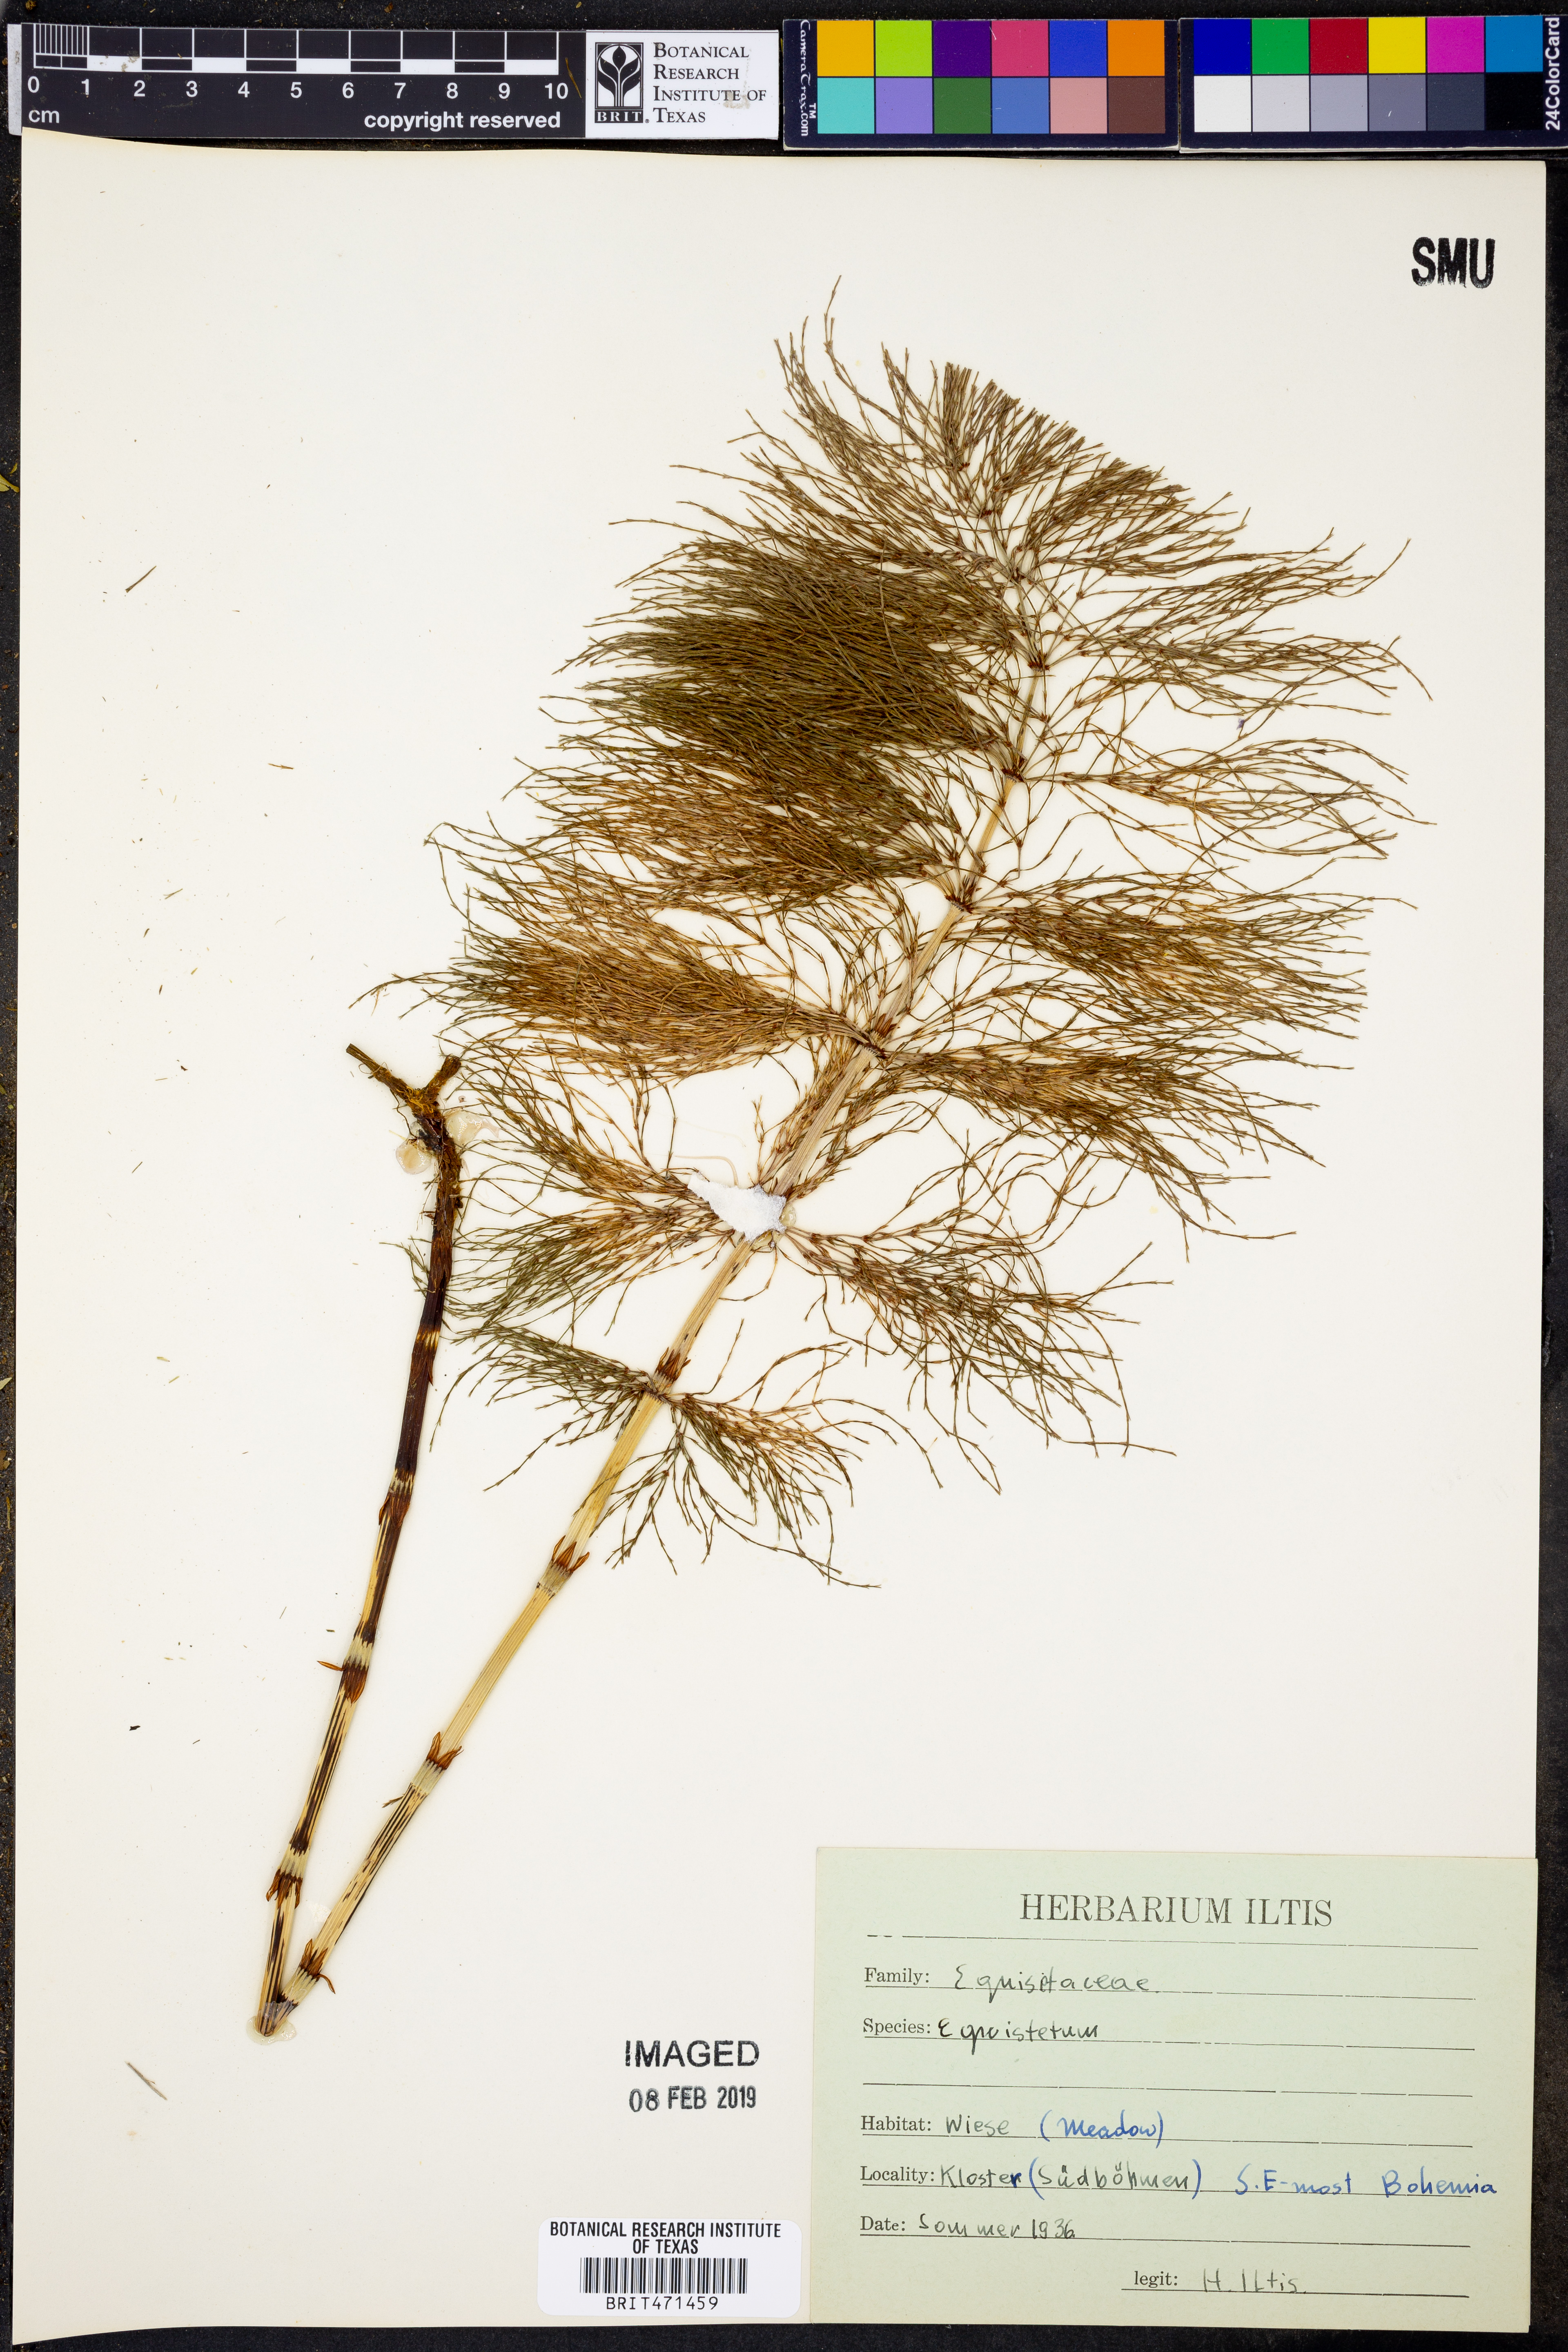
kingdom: Plantae
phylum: Tracheophyta
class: Polypodiopsida
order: Equisetales
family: Equisetaceae
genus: Equisetum
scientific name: Equisetum
